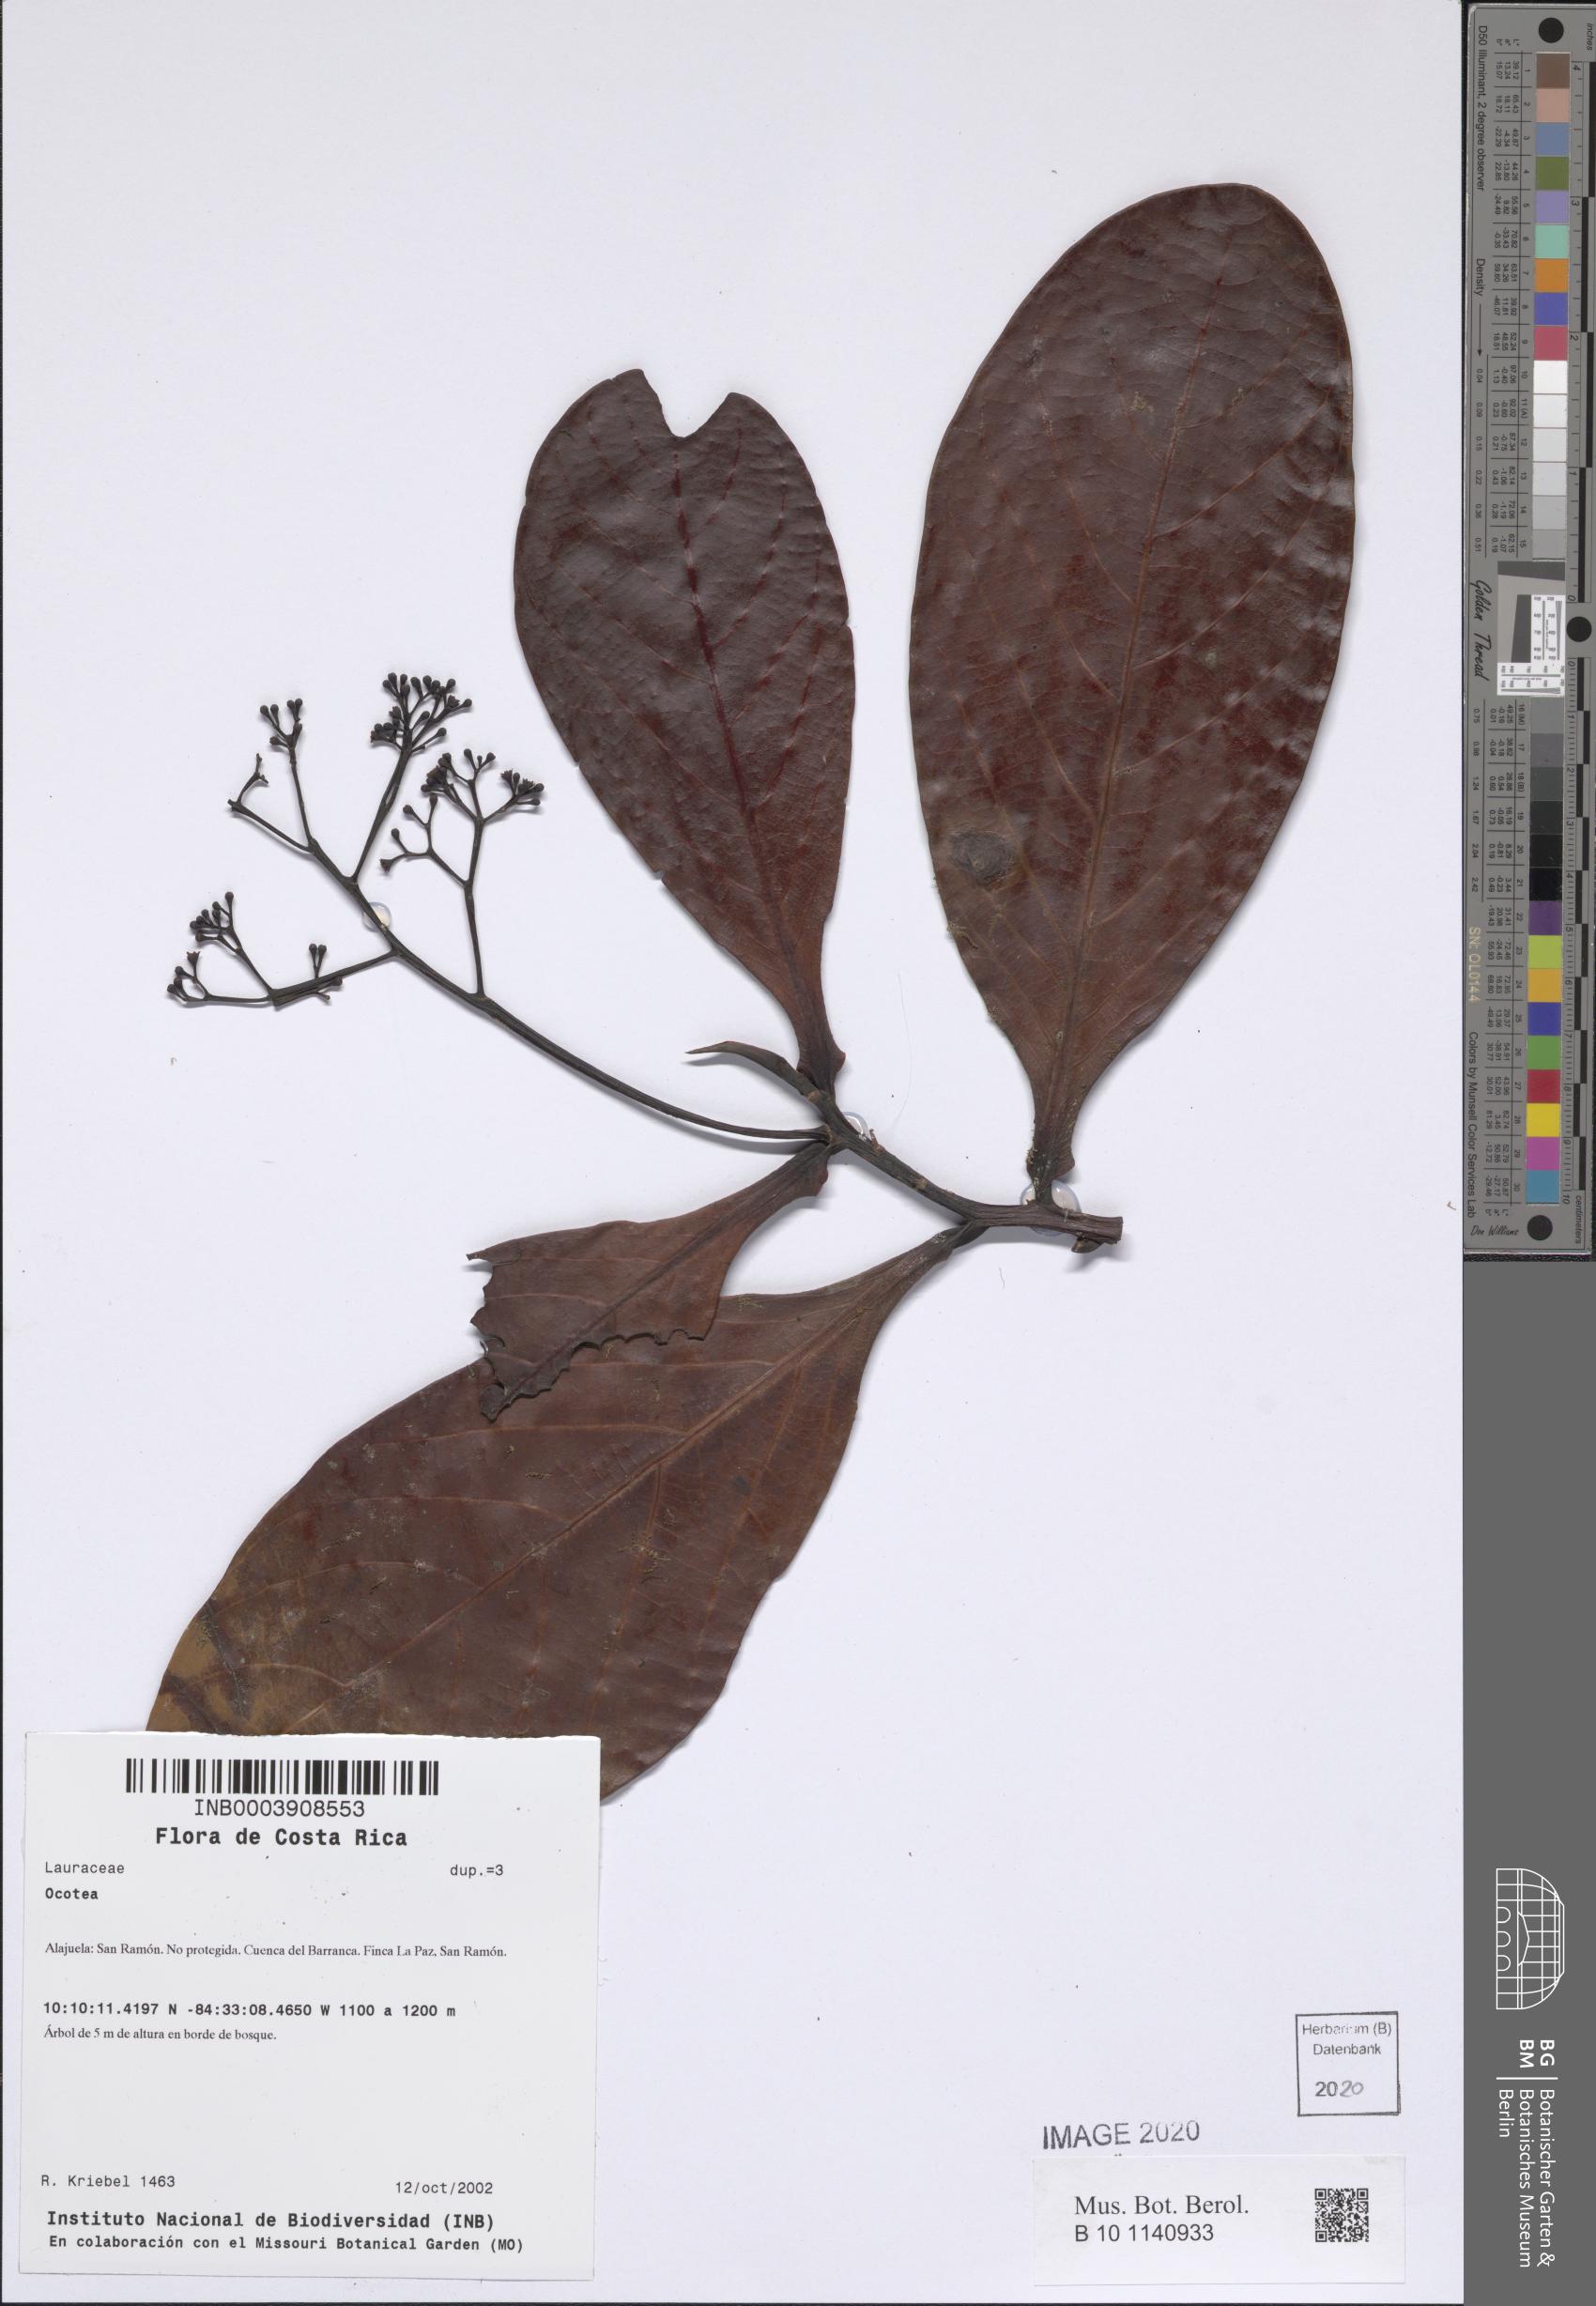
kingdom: Plantae
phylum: Tracheophyta
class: Magnoliopsida
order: Ericales
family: Primulaceae
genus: Ardisia
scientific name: Ardisia compressa
